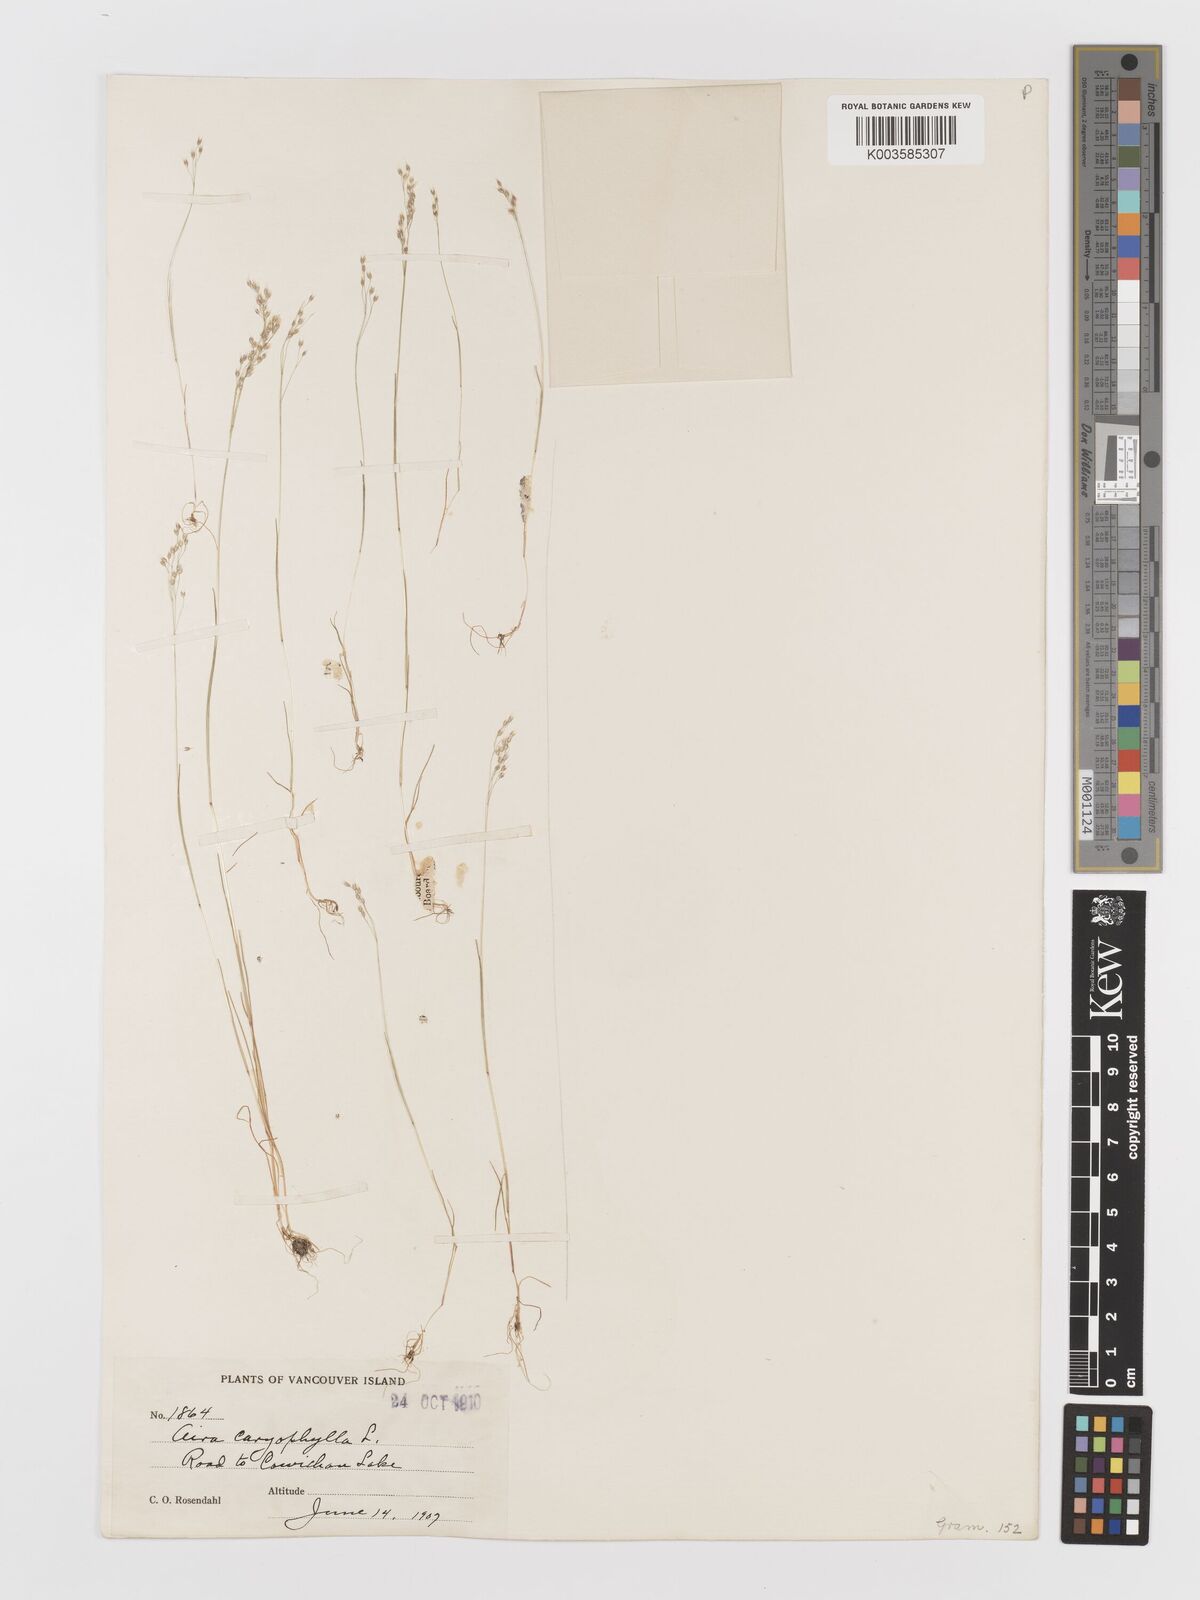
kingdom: Plantae
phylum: Tracheophyta
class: Liliopsida
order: Poales
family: Poaceae
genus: Aira
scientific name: Aira caryophyllea
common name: Silver hairgrass
